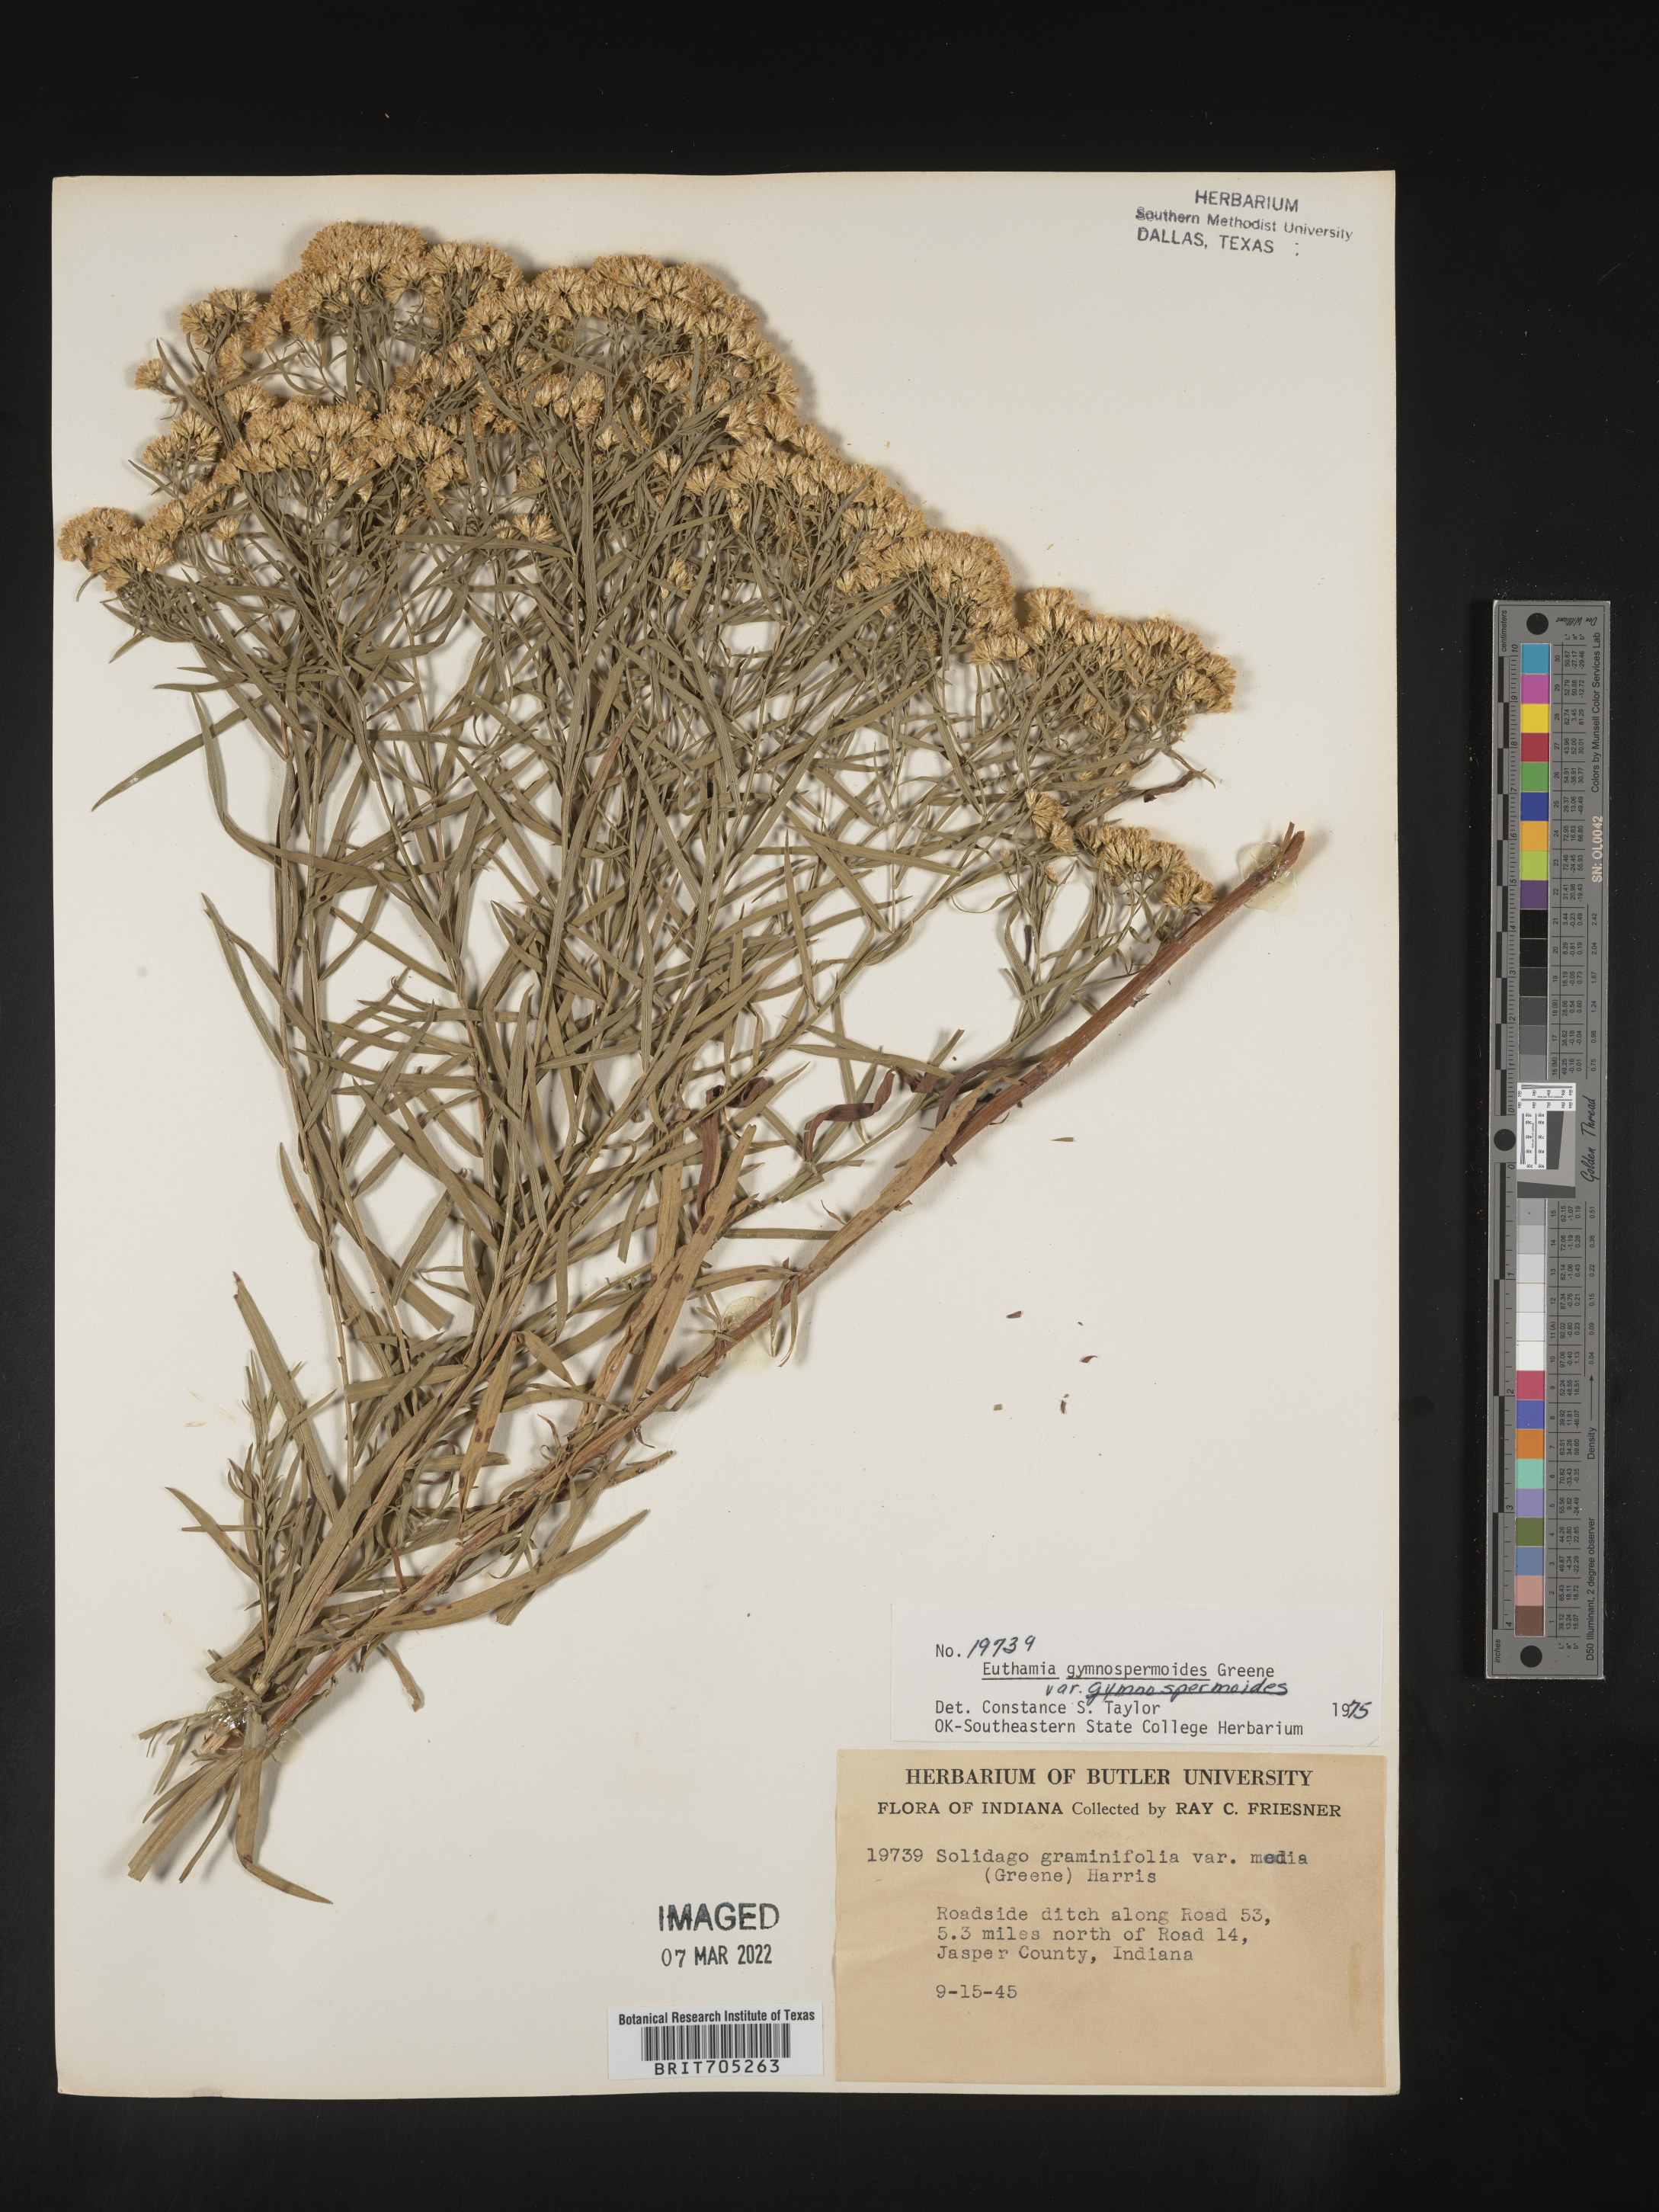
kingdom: Plantae
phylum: Tracheophyta
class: Magnoliopsida
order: Asterales
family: Asteraceae
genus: Euthamia
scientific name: Euthamia gymnospermoides
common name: Great plains goldentop
